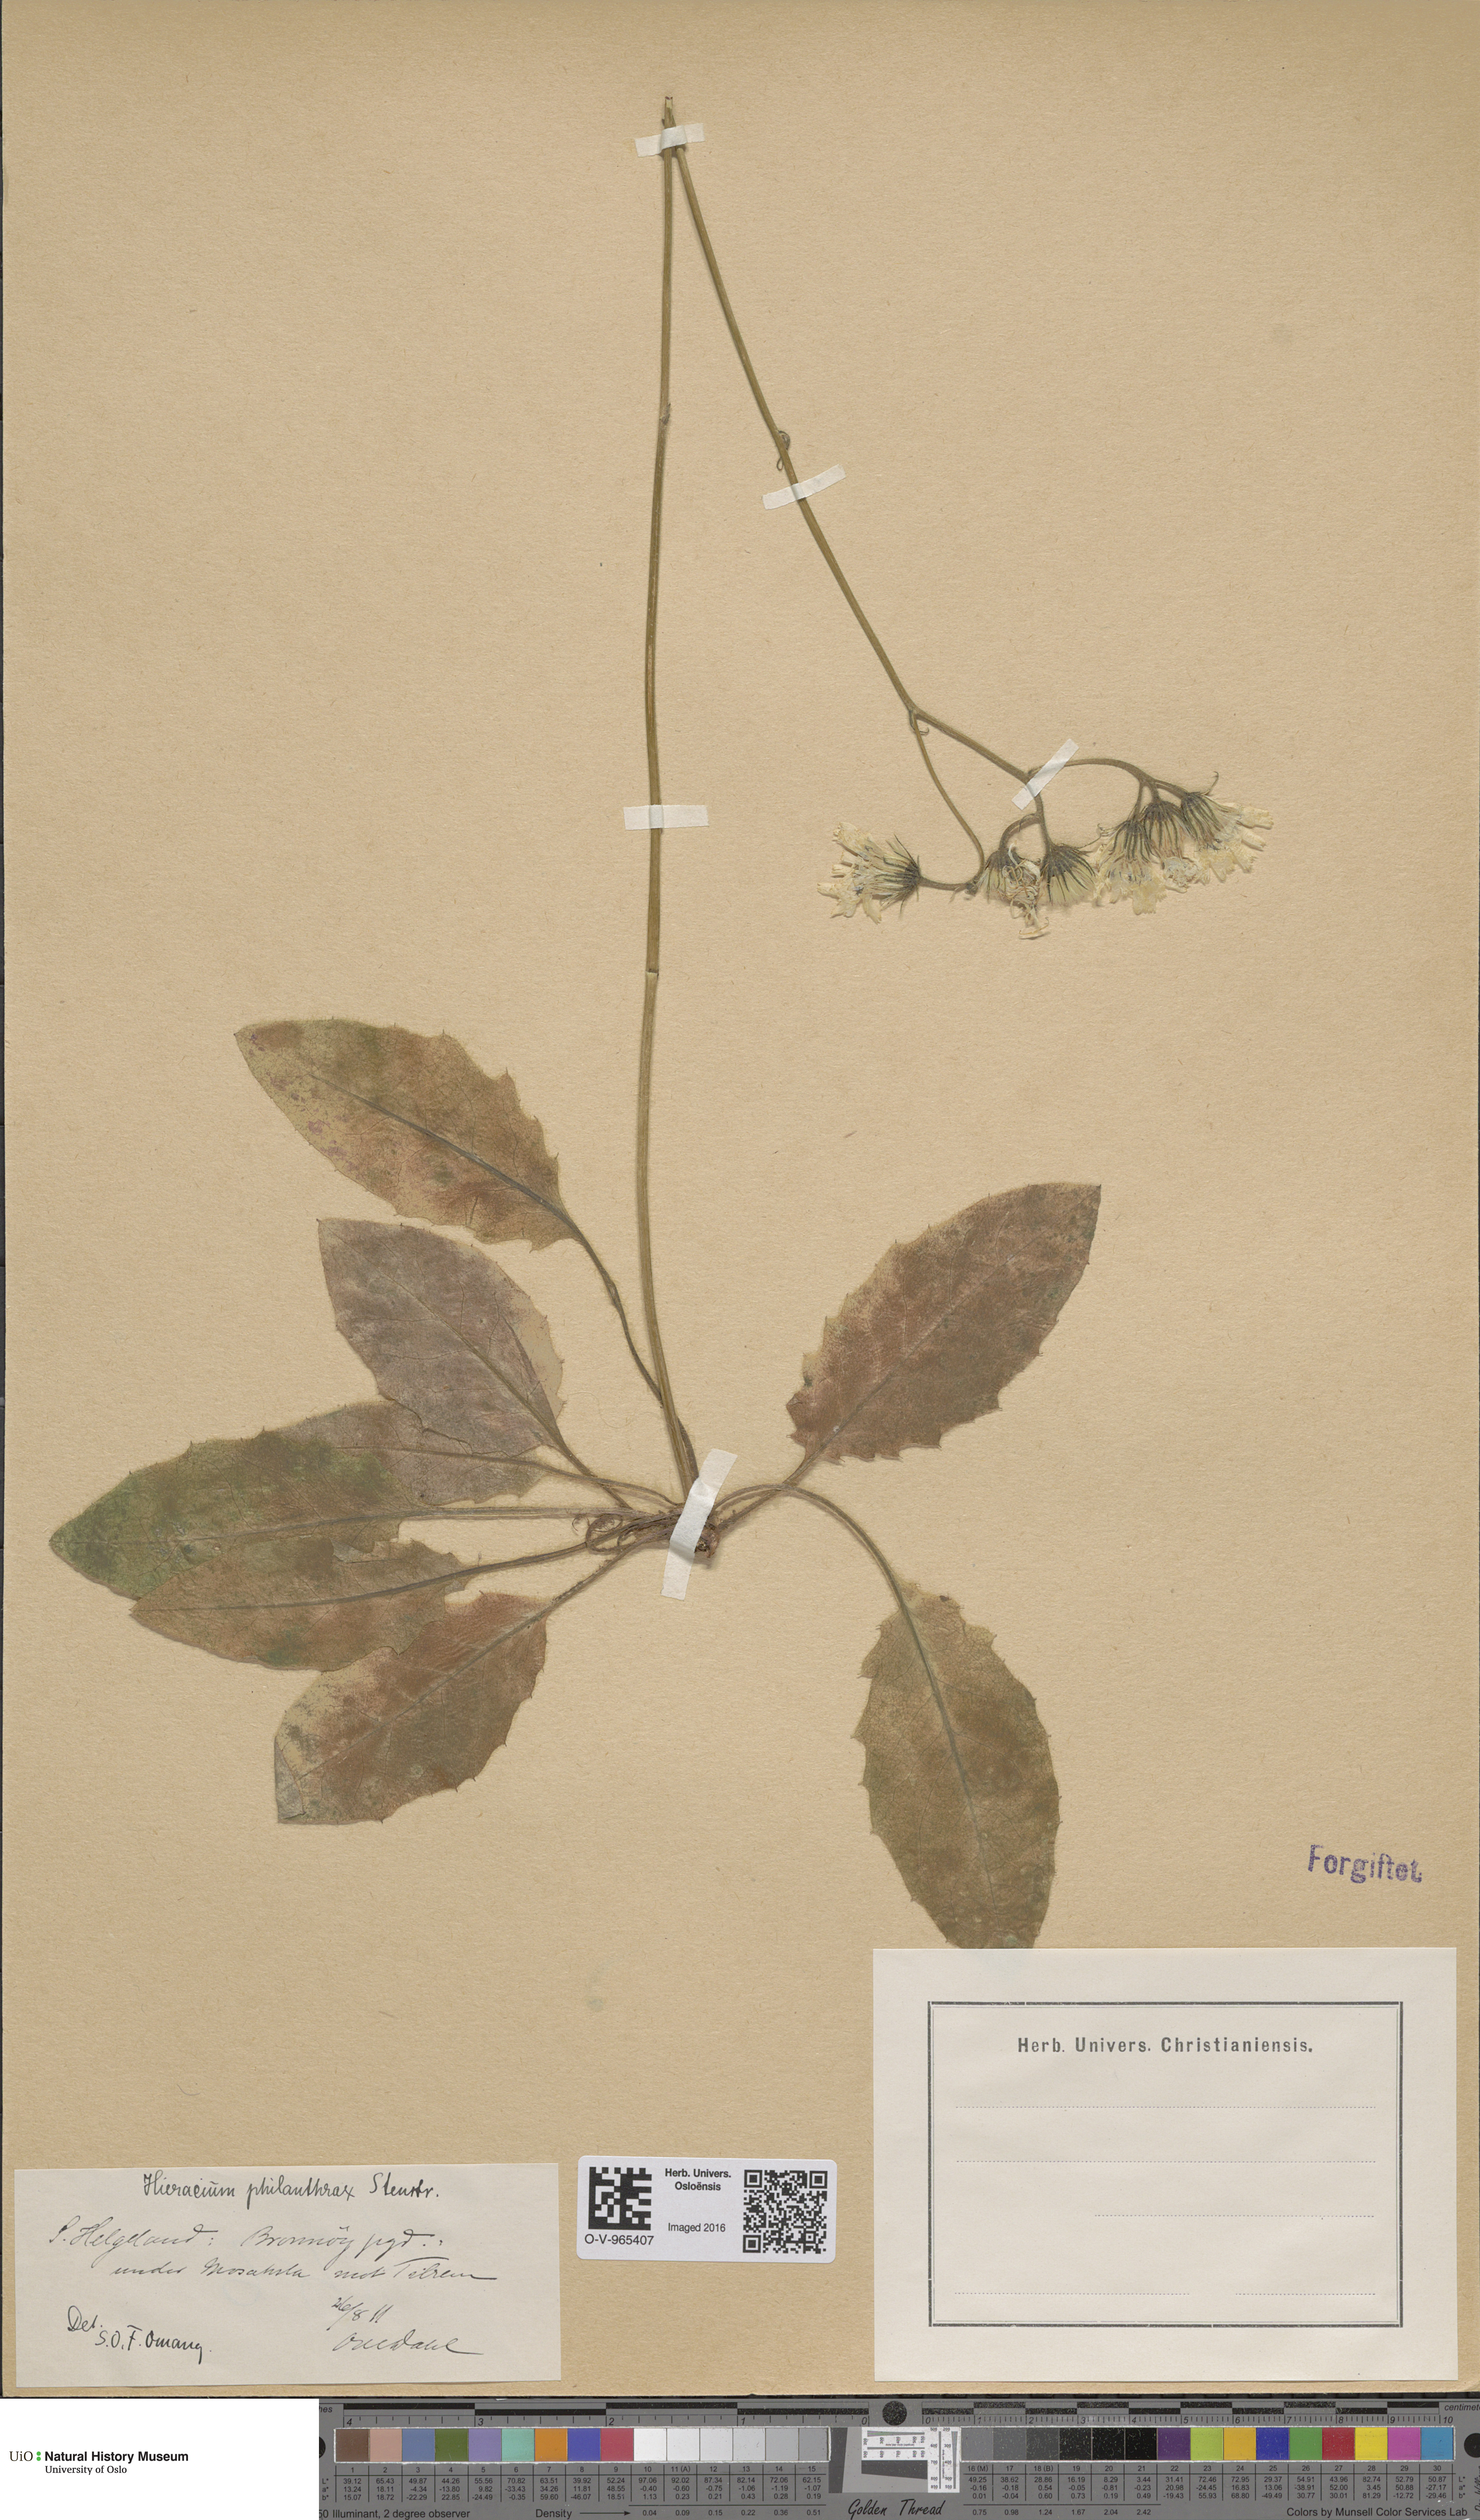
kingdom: Plantae
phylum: Tracheophyta
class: Magnoliopsida
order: Asterales
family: Asteraceae
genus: Hieracium
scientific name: Hieracium philanthrax
